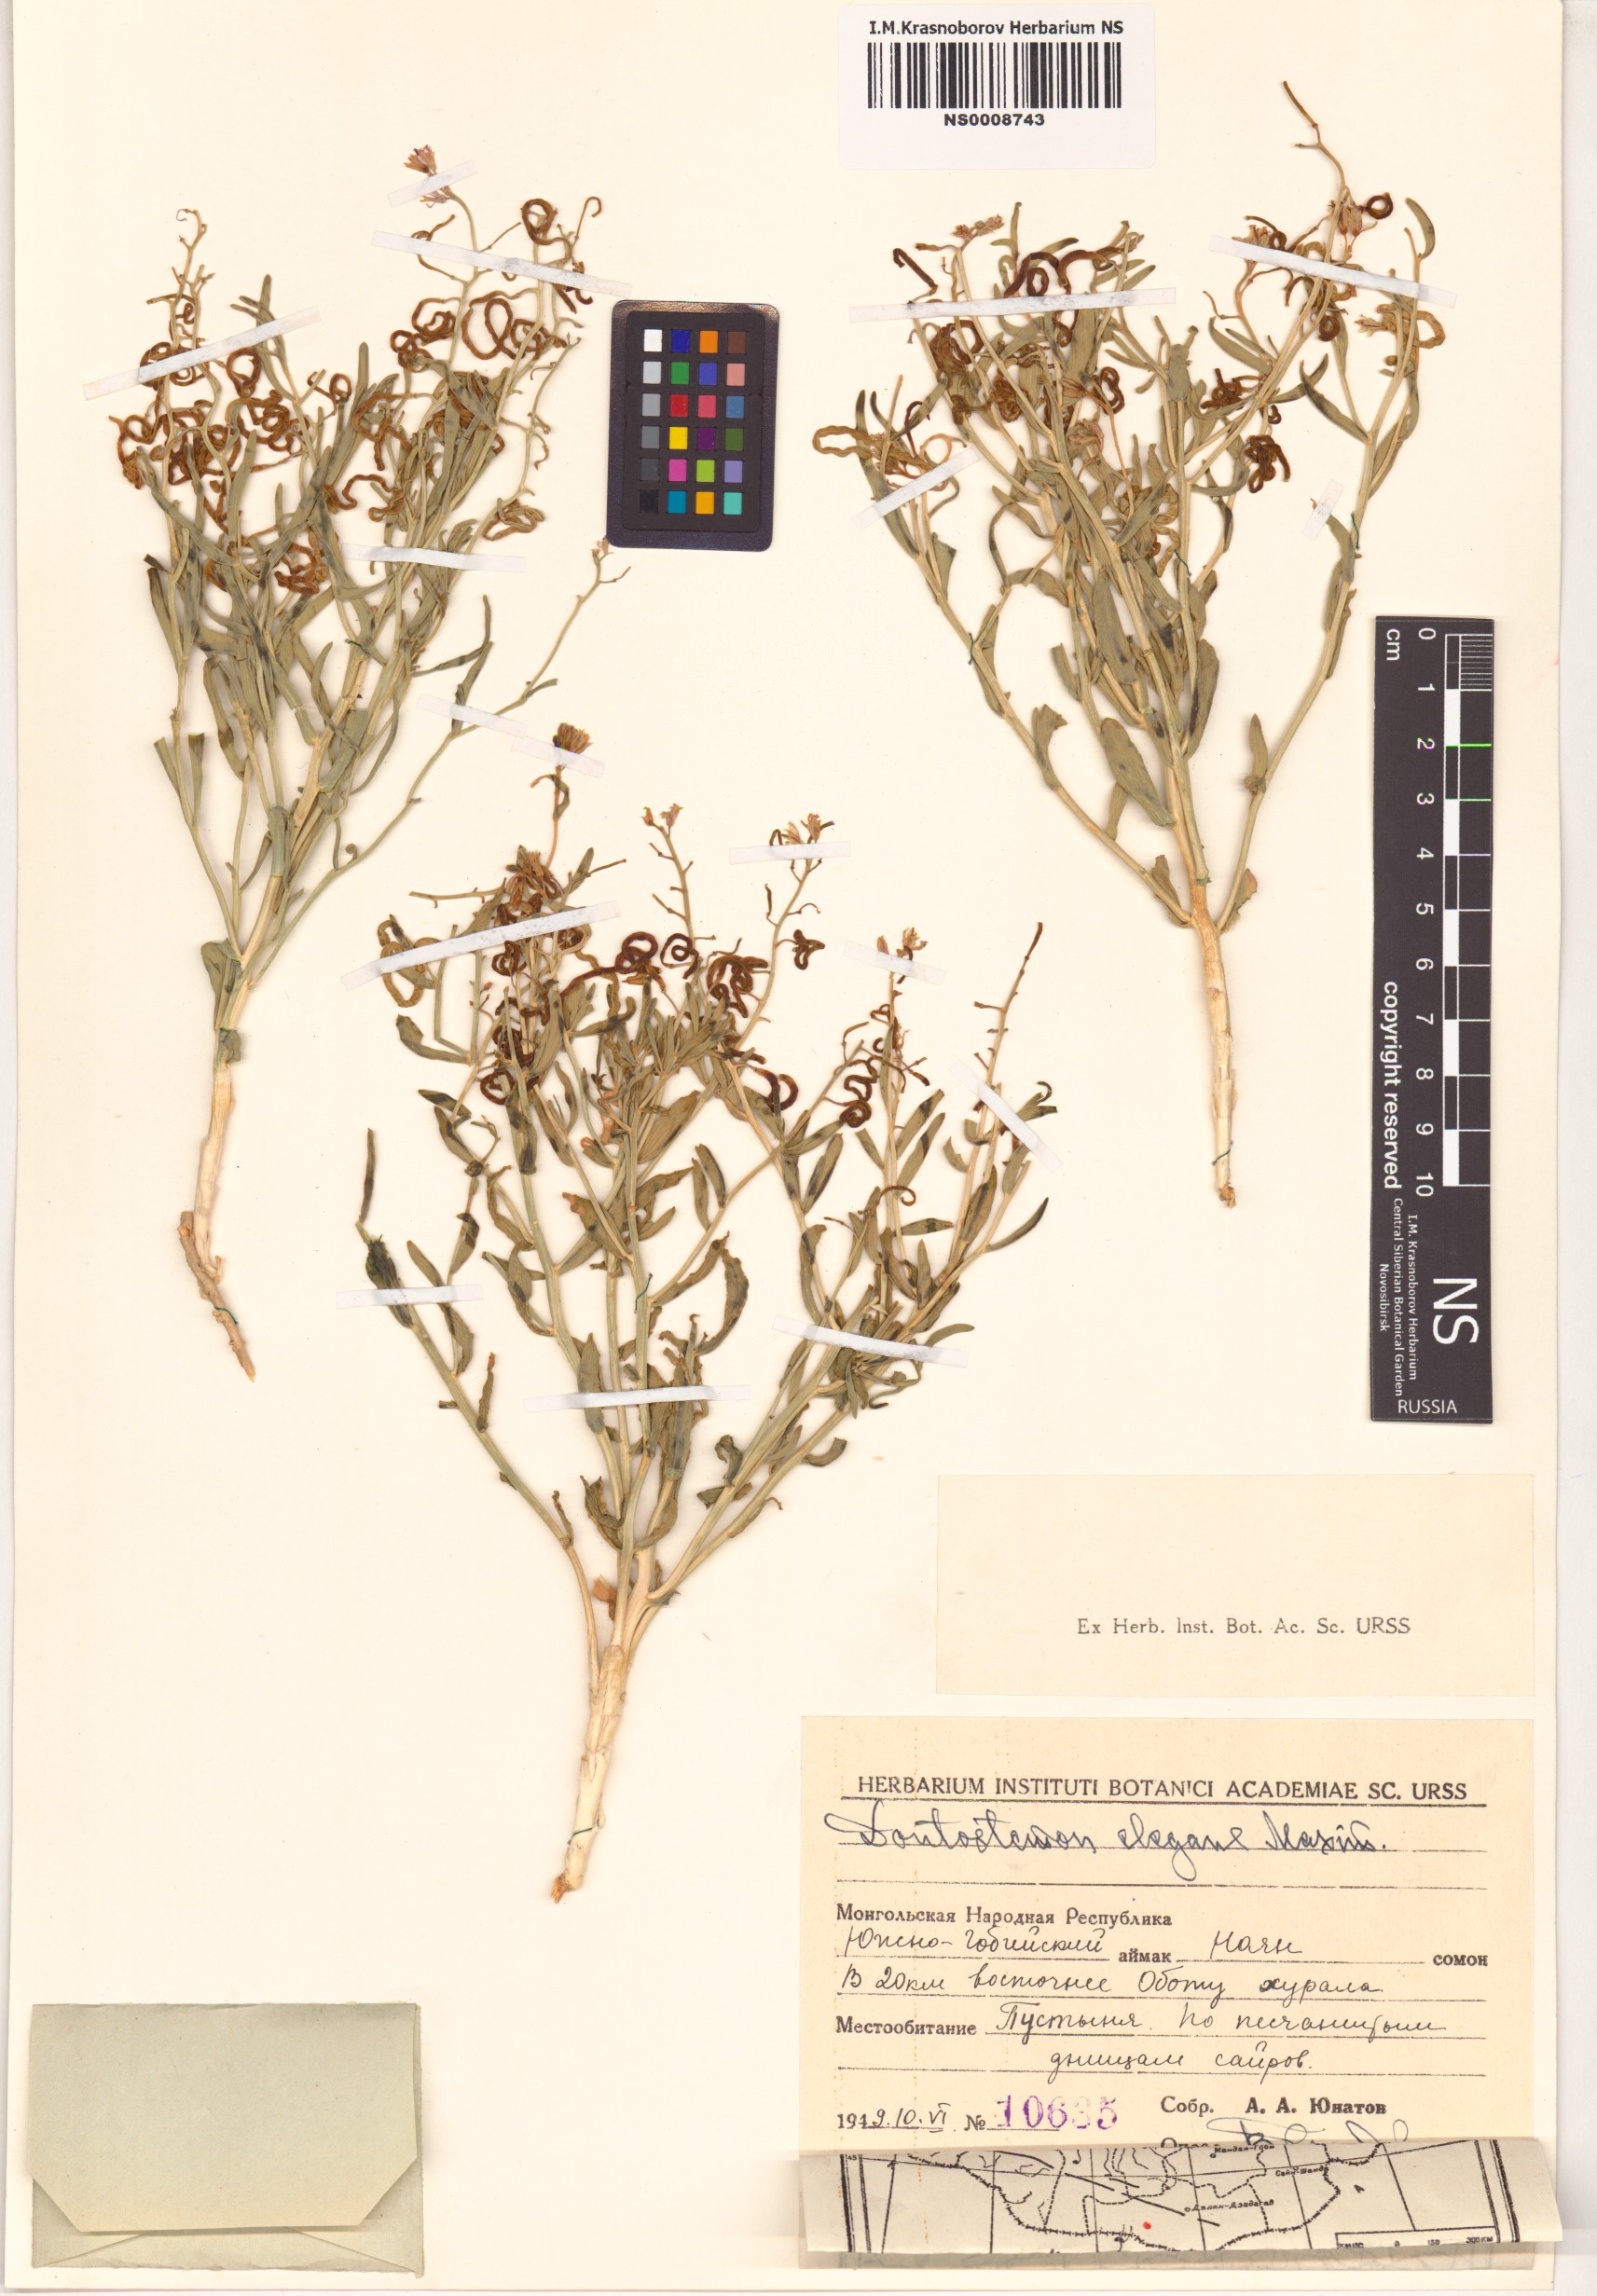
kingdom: Plantae
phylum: Tracheophyta
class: Magnoliopsida
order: Brassicales
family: Brassicaceae
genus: Dontostemon
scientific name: Dontostemon elegans
